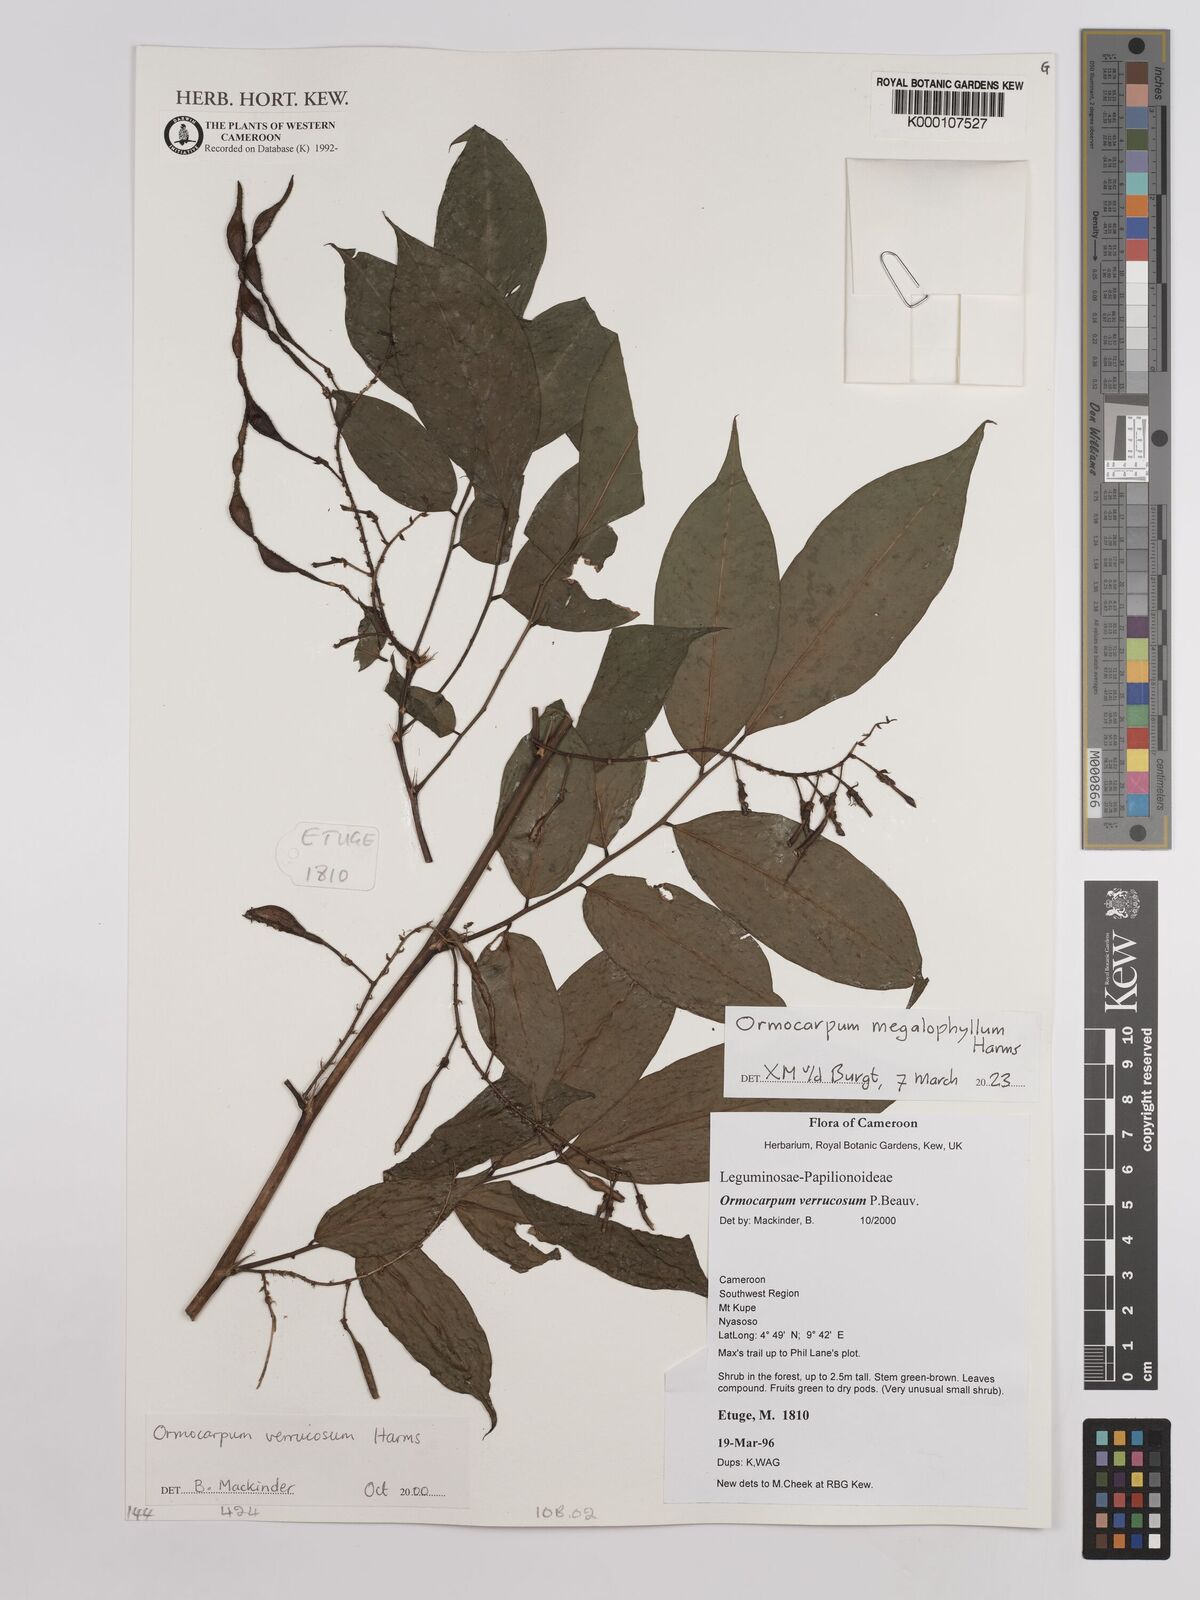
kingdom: Plantae
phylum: Tracheophyta
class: Magnoliopsida
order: Fabales
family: Fabaceae
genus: Ormocarpum
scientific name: Ormocarpum verrucosum
